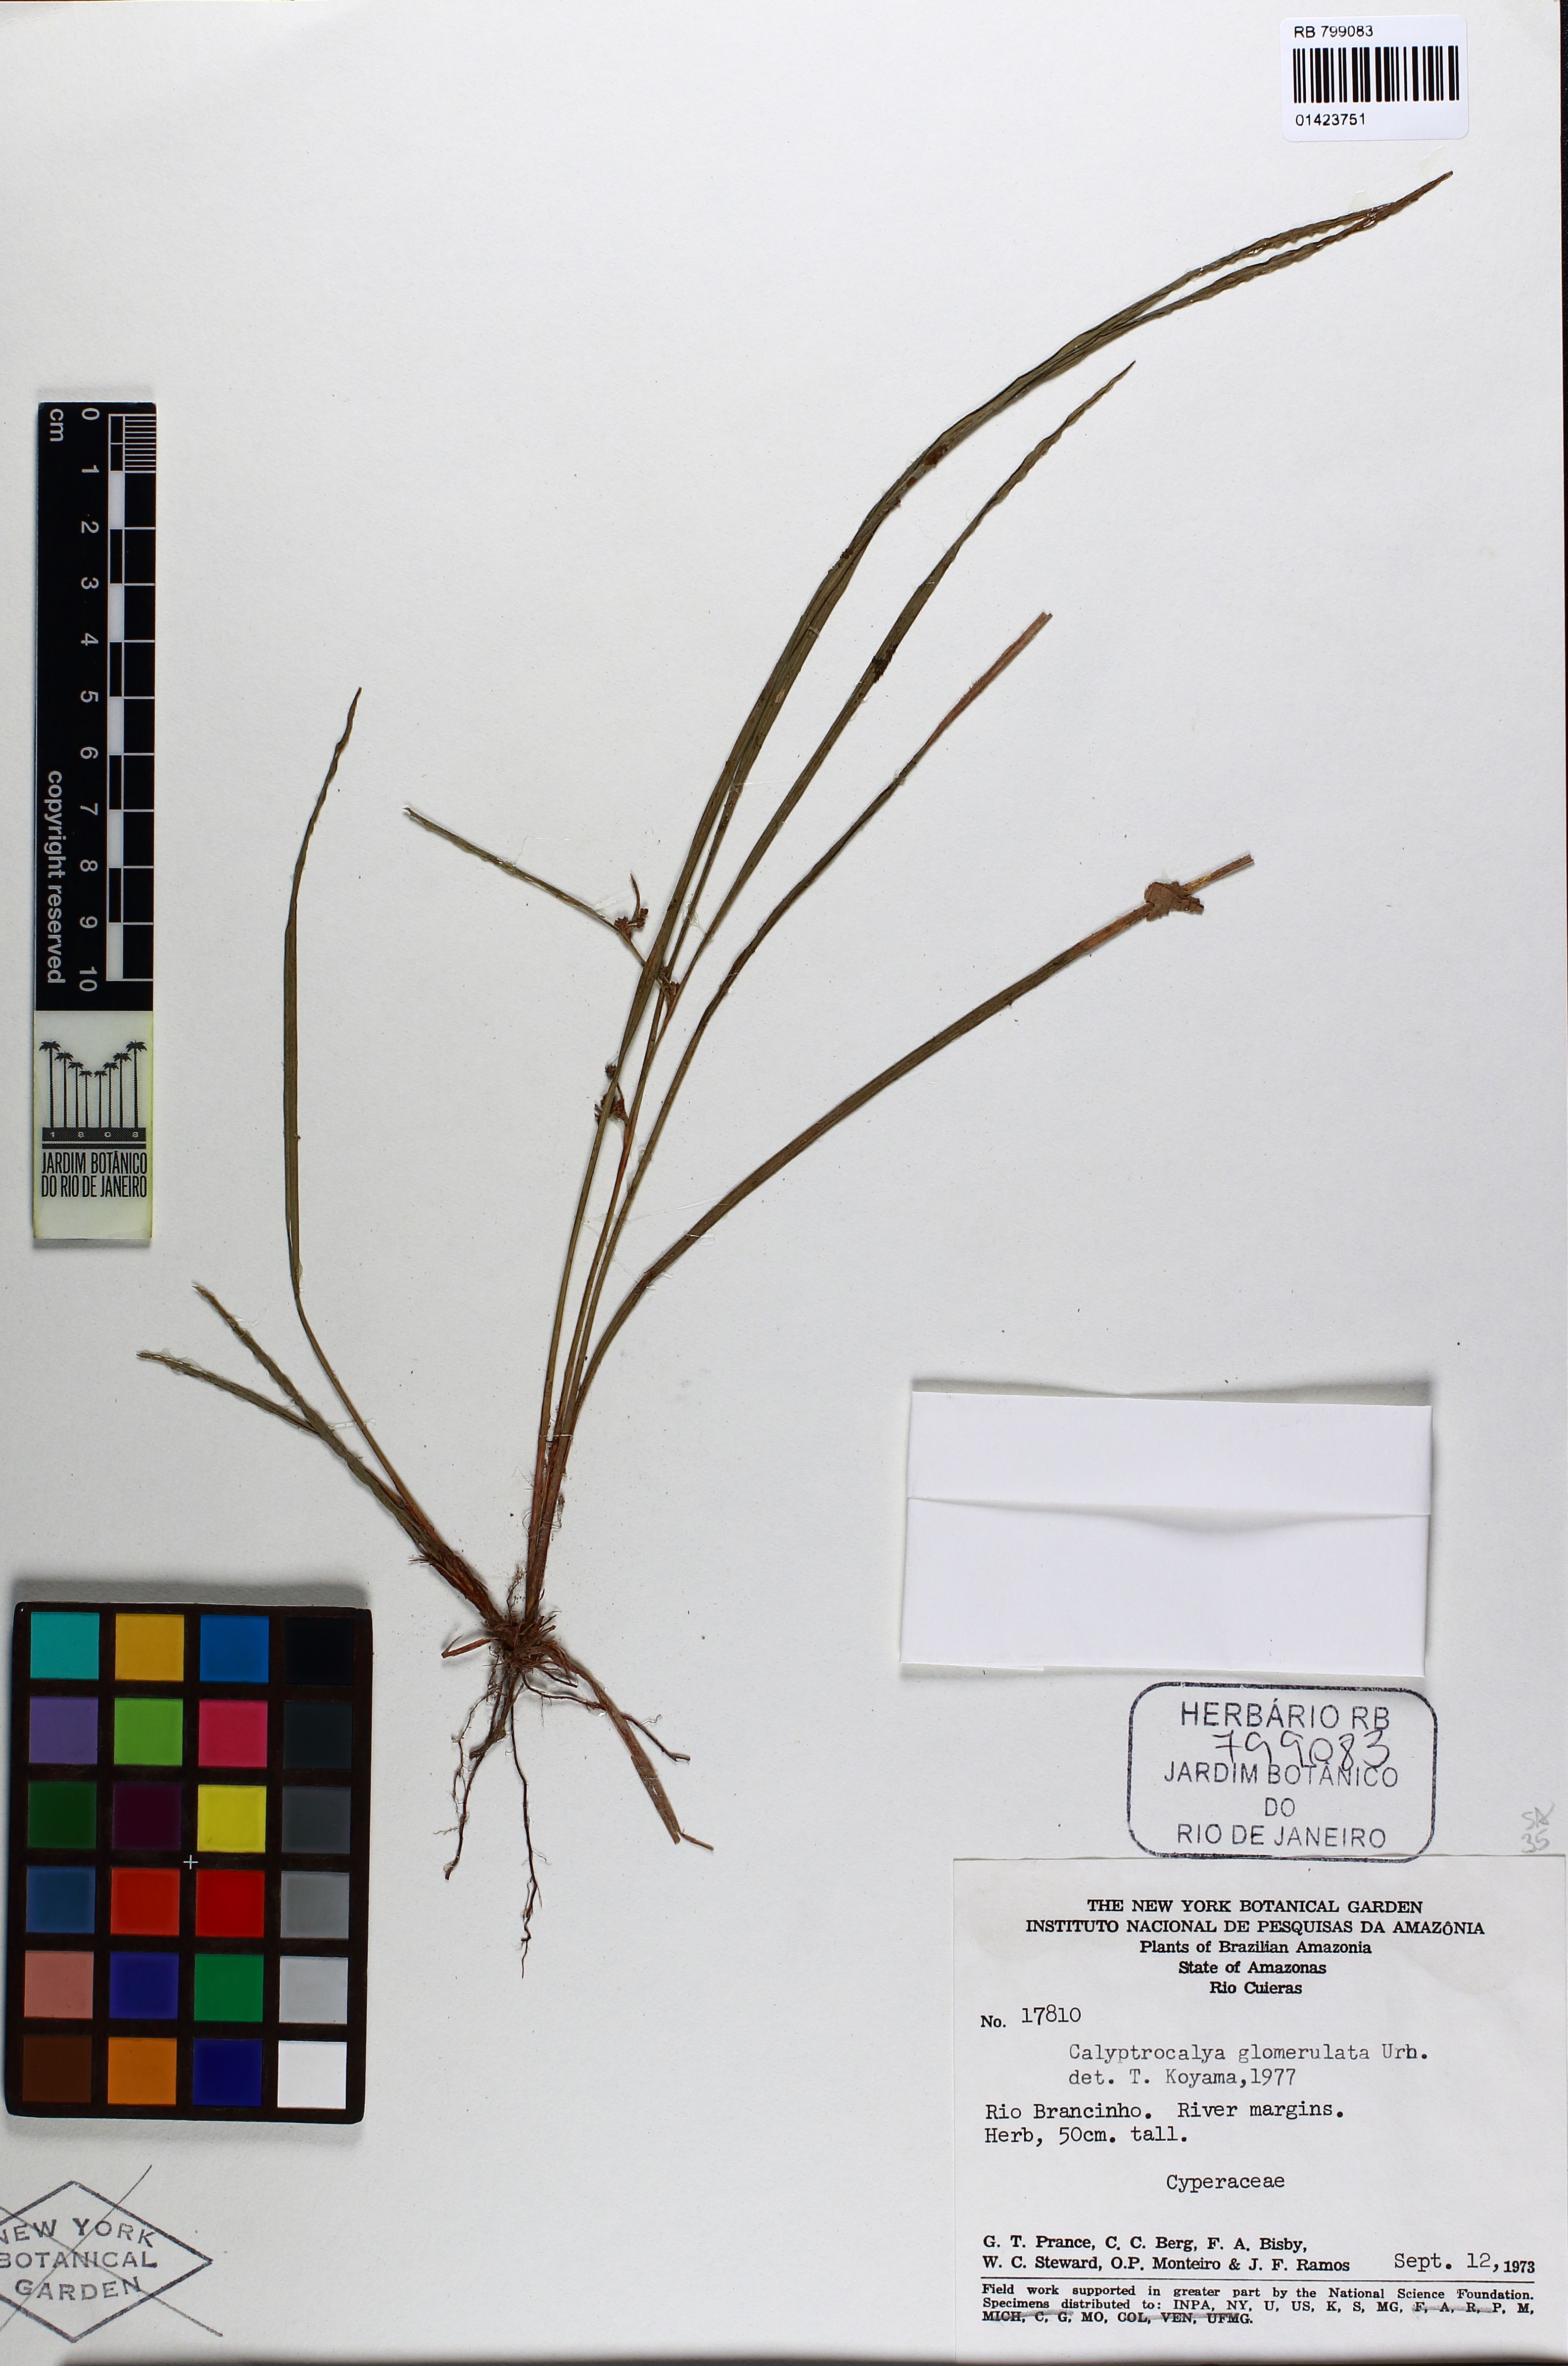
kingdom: Plantae
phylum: Tracheophyta
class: Liliopsida
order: Poales
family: Cyperaceae
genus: Calyptrocarya
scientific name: Calyptrocarya glomerulata
